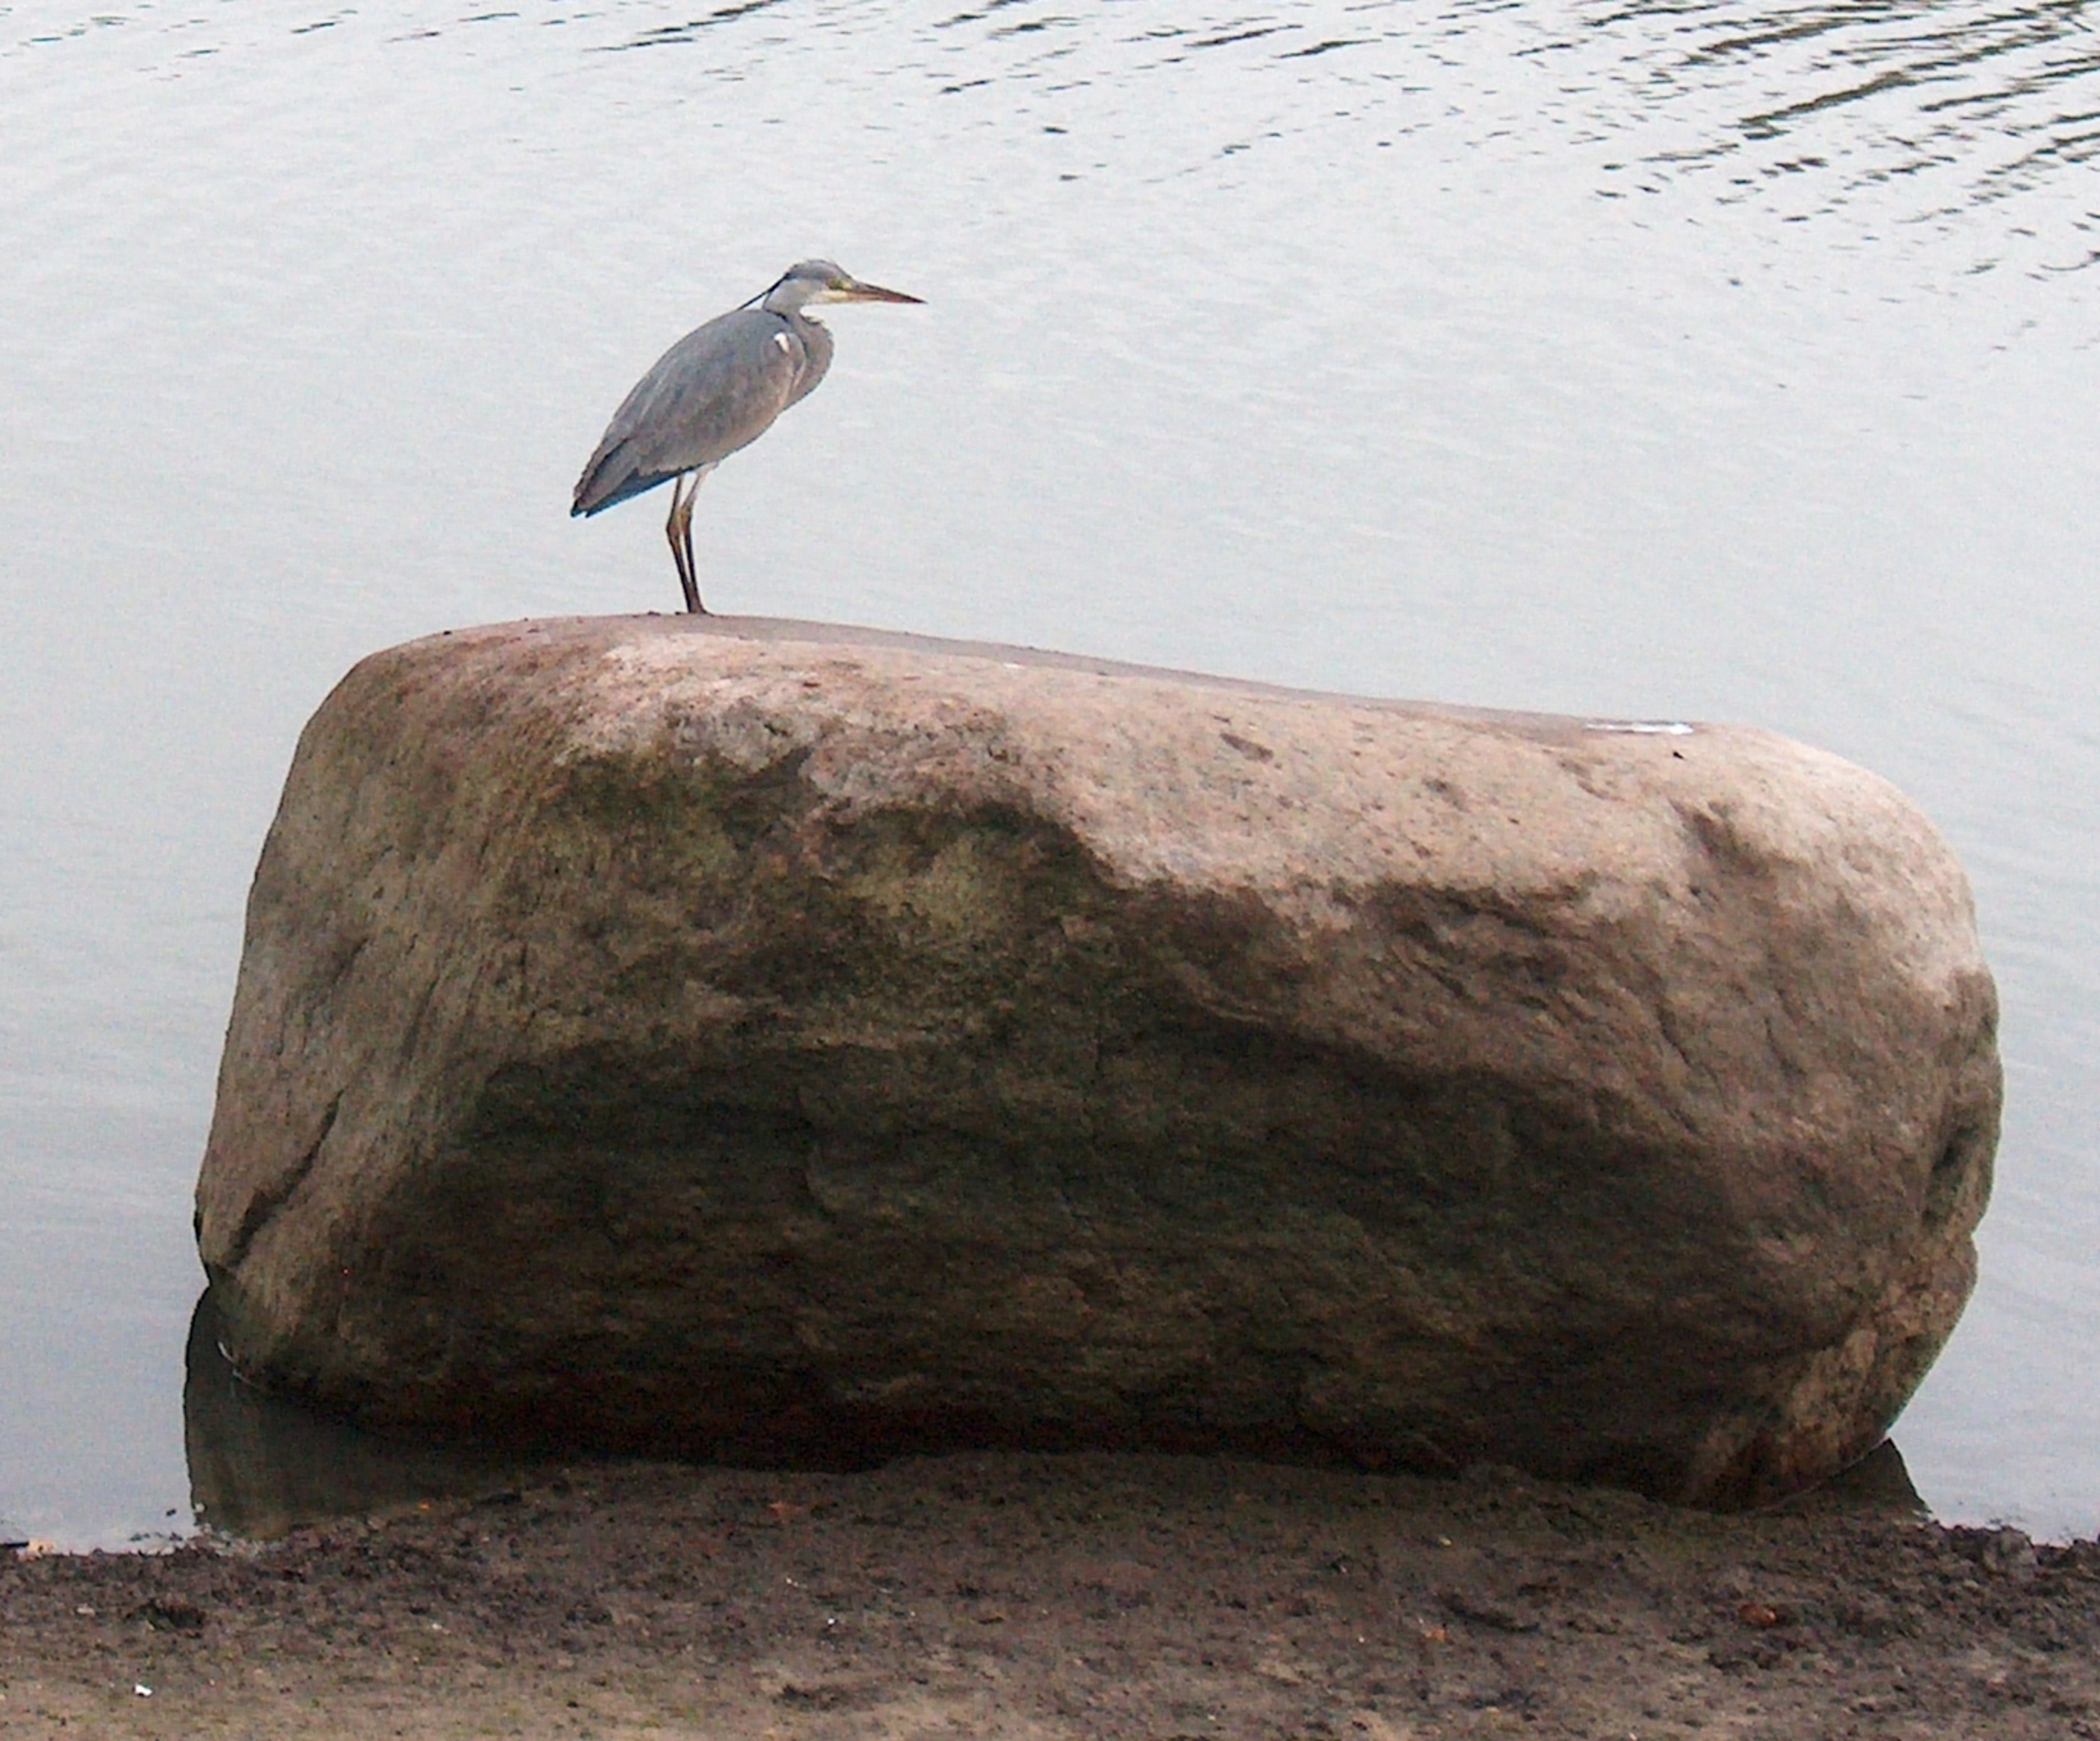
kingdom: Animalia
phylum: Chordata
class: Aves
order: Pelecaniformes
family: Ardeidae
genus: Ardea
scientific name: Ardea cinerea
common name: Fiskehejre
